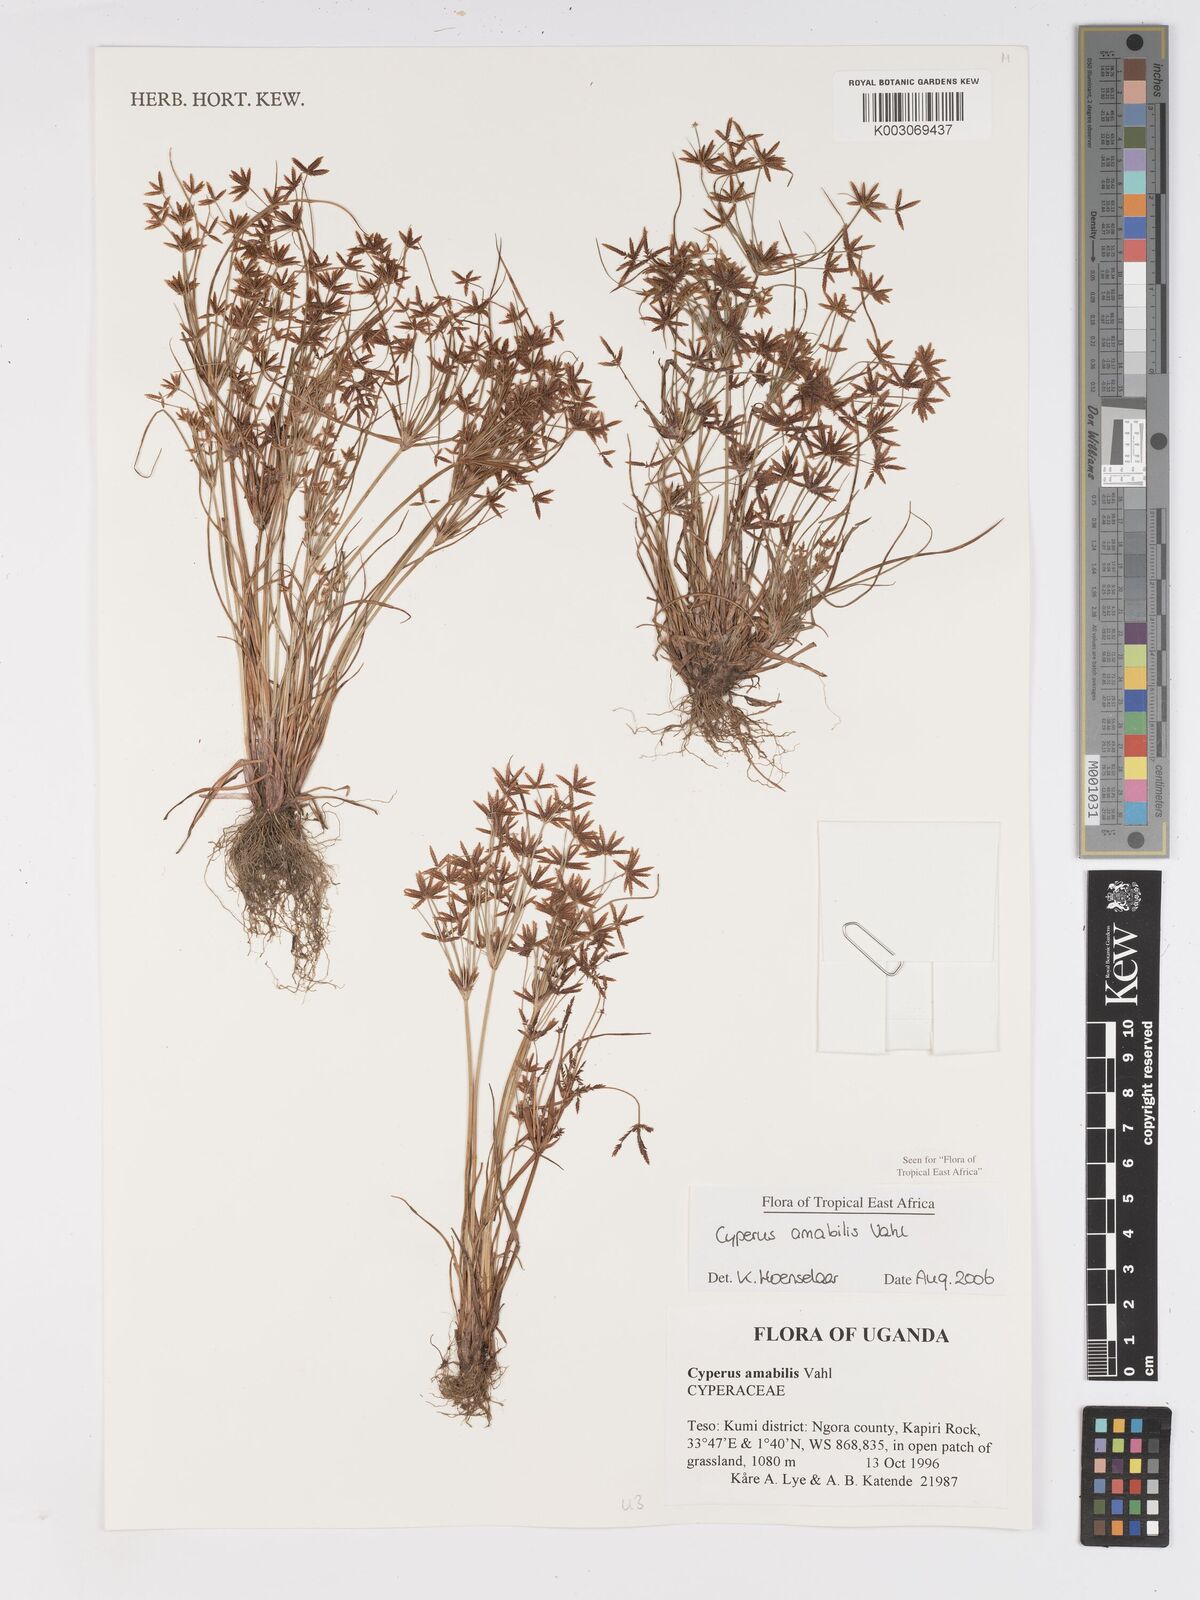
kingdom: Plantae
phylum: Tracheophyta
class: Liliopsida
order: Poales
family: Cyperaceae
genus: Cyperus
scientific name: Cyperus amabilis
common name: Foothill flat sedge
